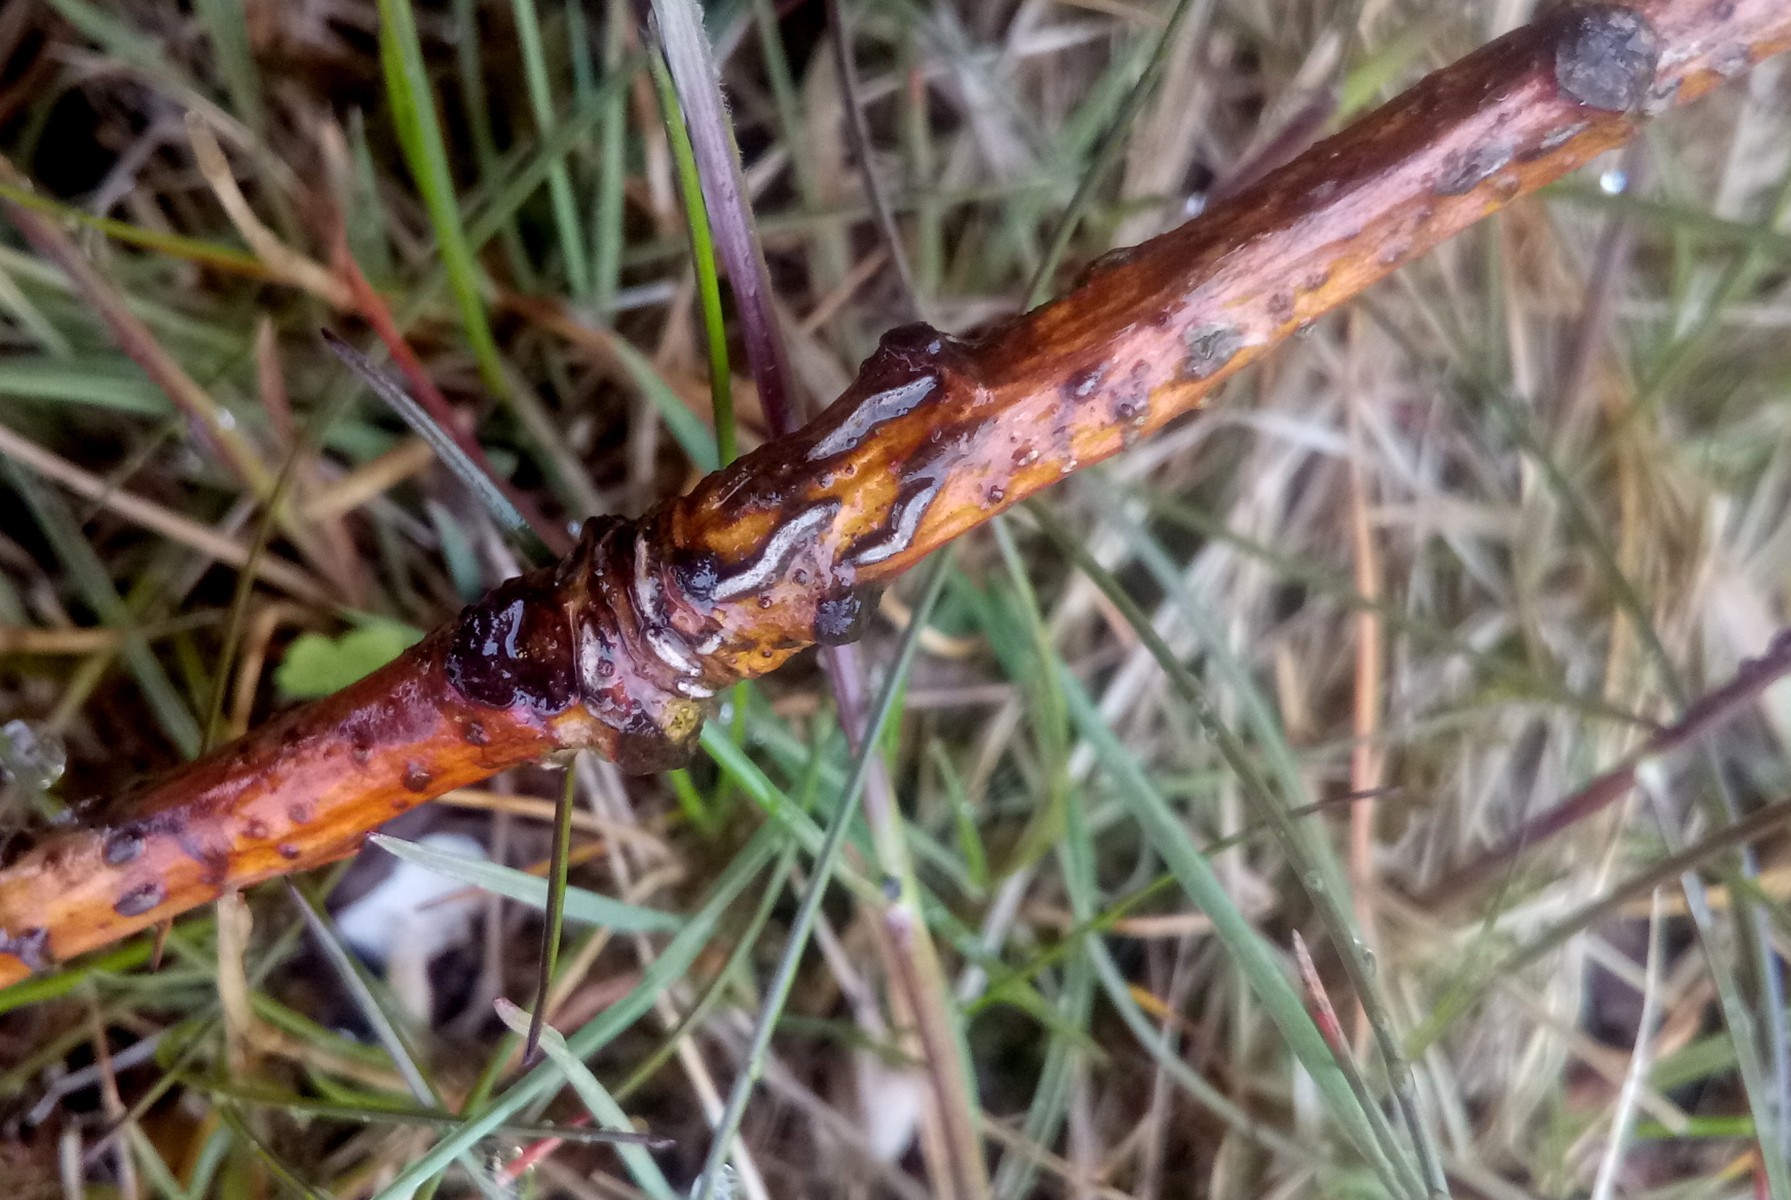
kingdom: Fungi
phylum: Ascomycota
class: Leotiomycetes
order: Rhytismatales
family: Rhytismataceae
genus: Colpoma
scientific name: Colpoma quercinum
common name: ege-sprækkeskive
